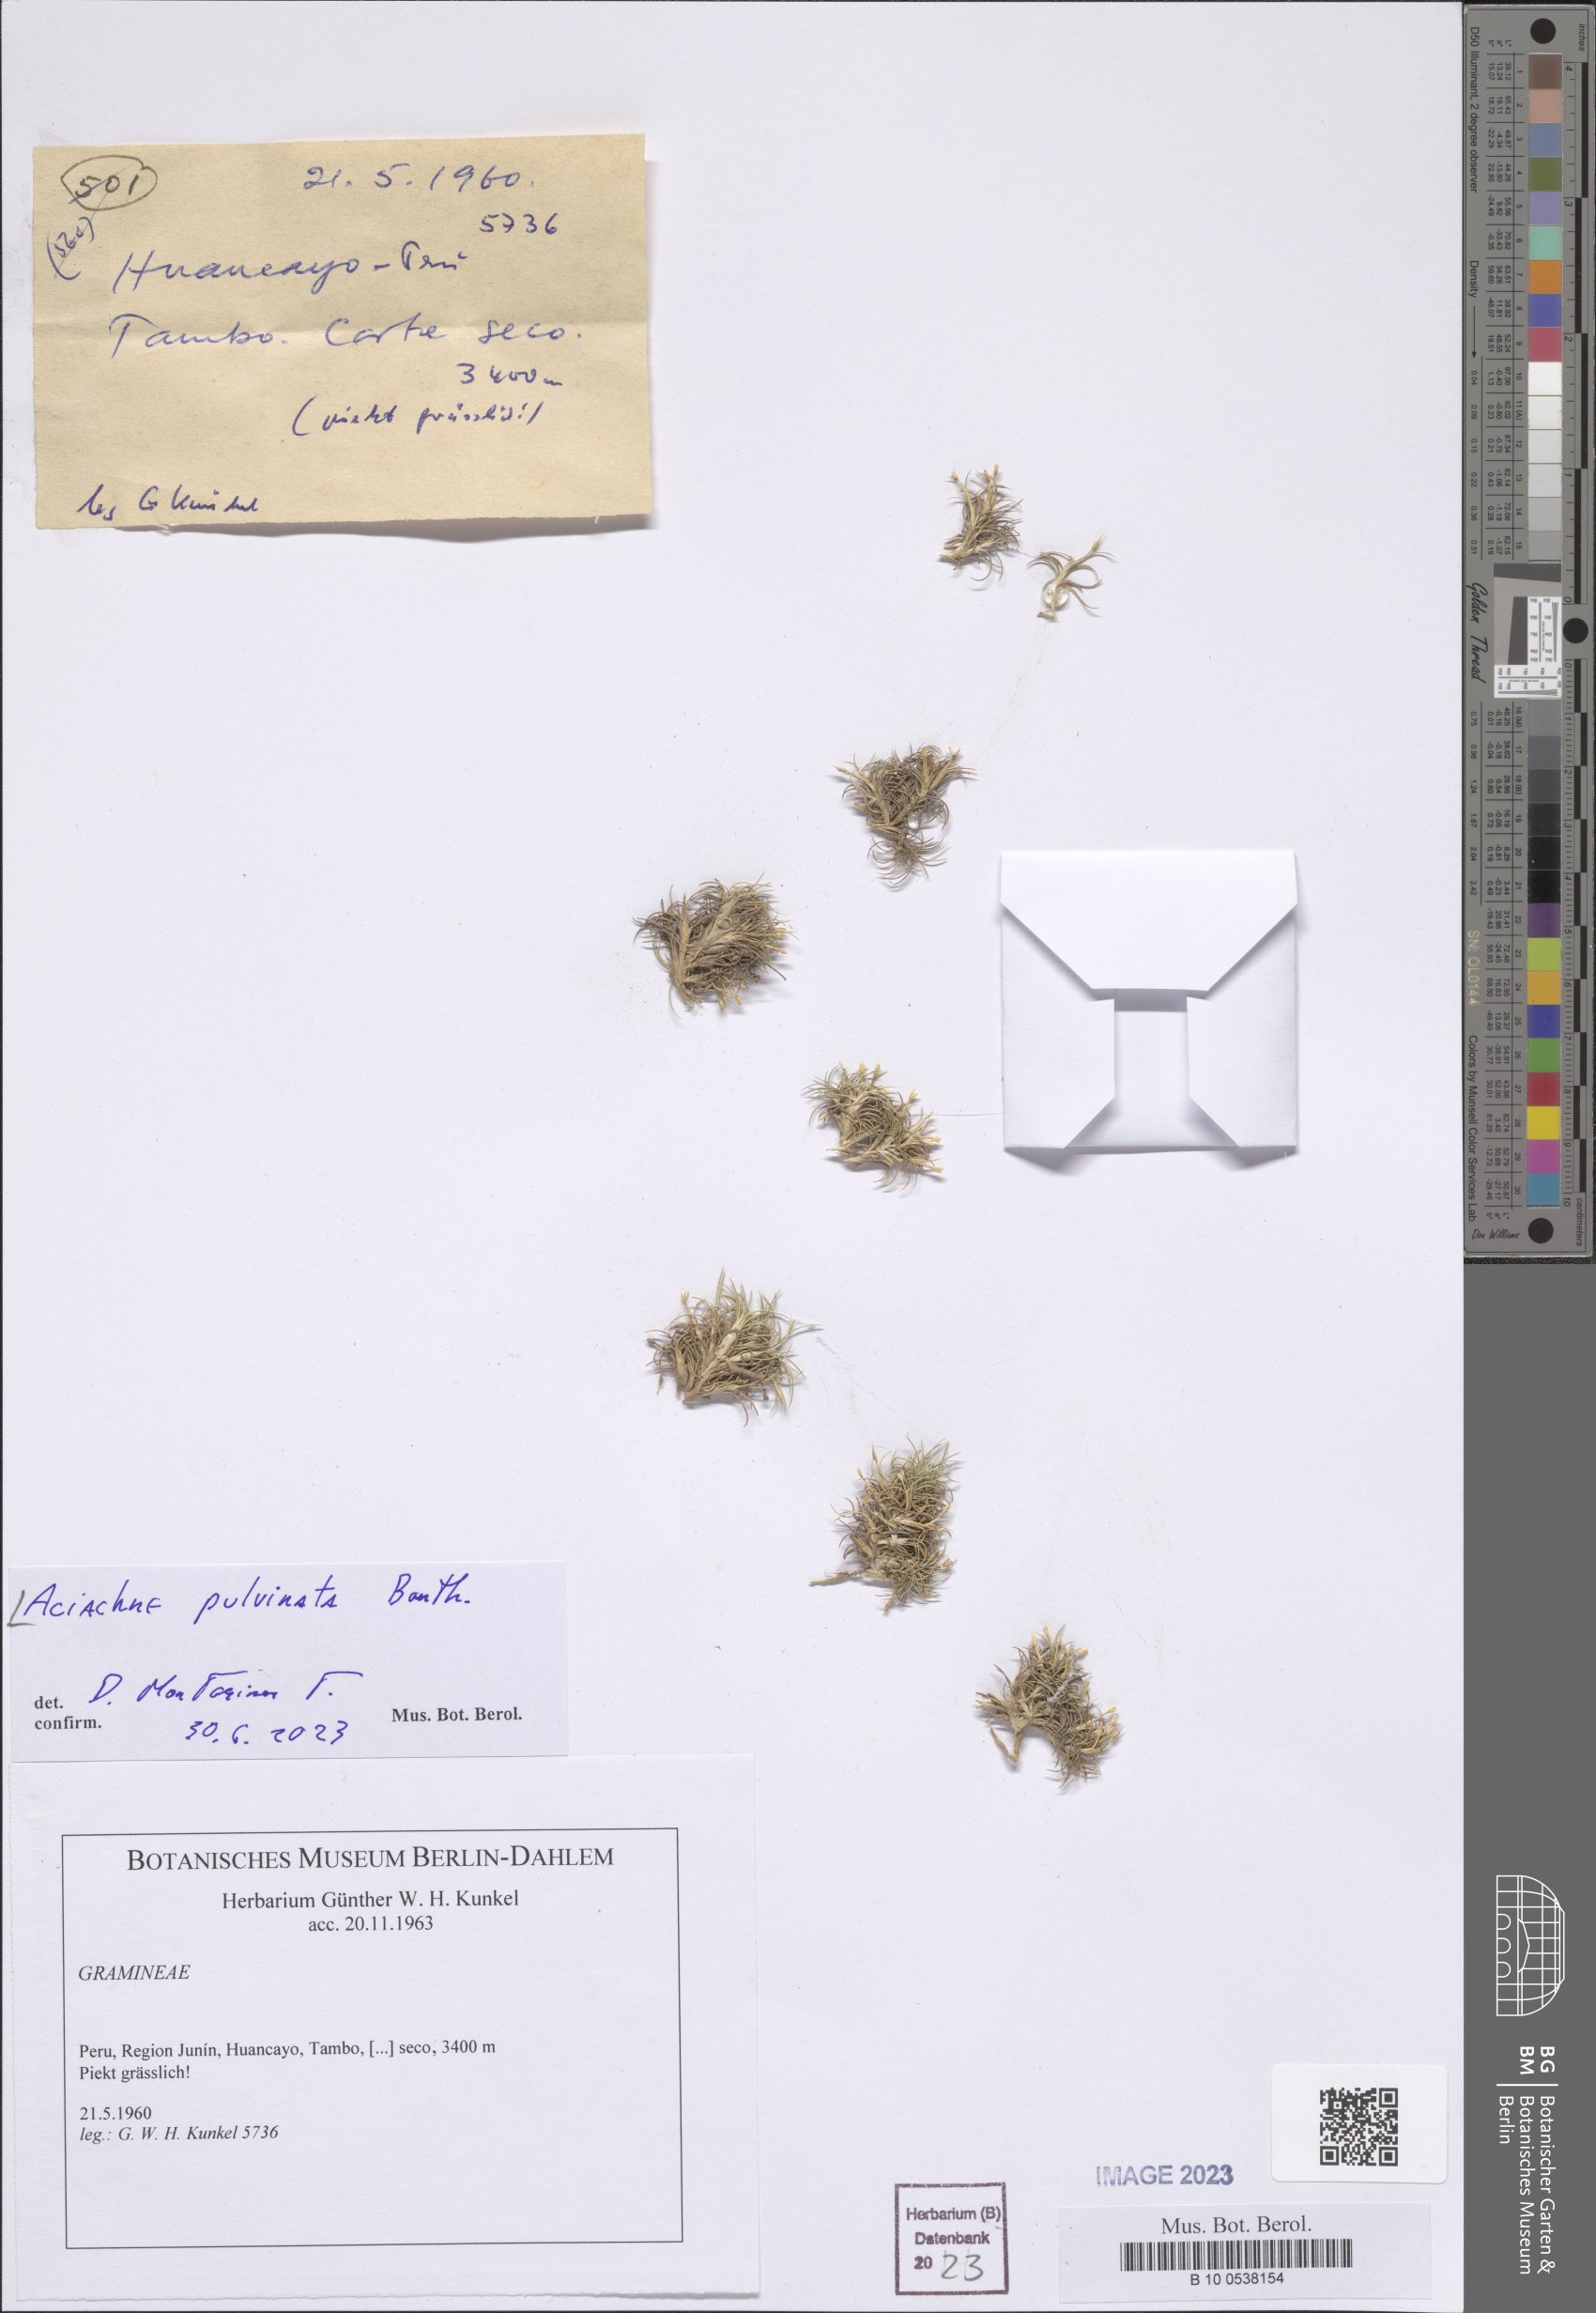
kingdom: Plantae
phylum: Tracheophyta
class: Liliopsida
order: Poales
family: Poaceae
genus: Aciachne
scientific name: Aciachne pulvinata
